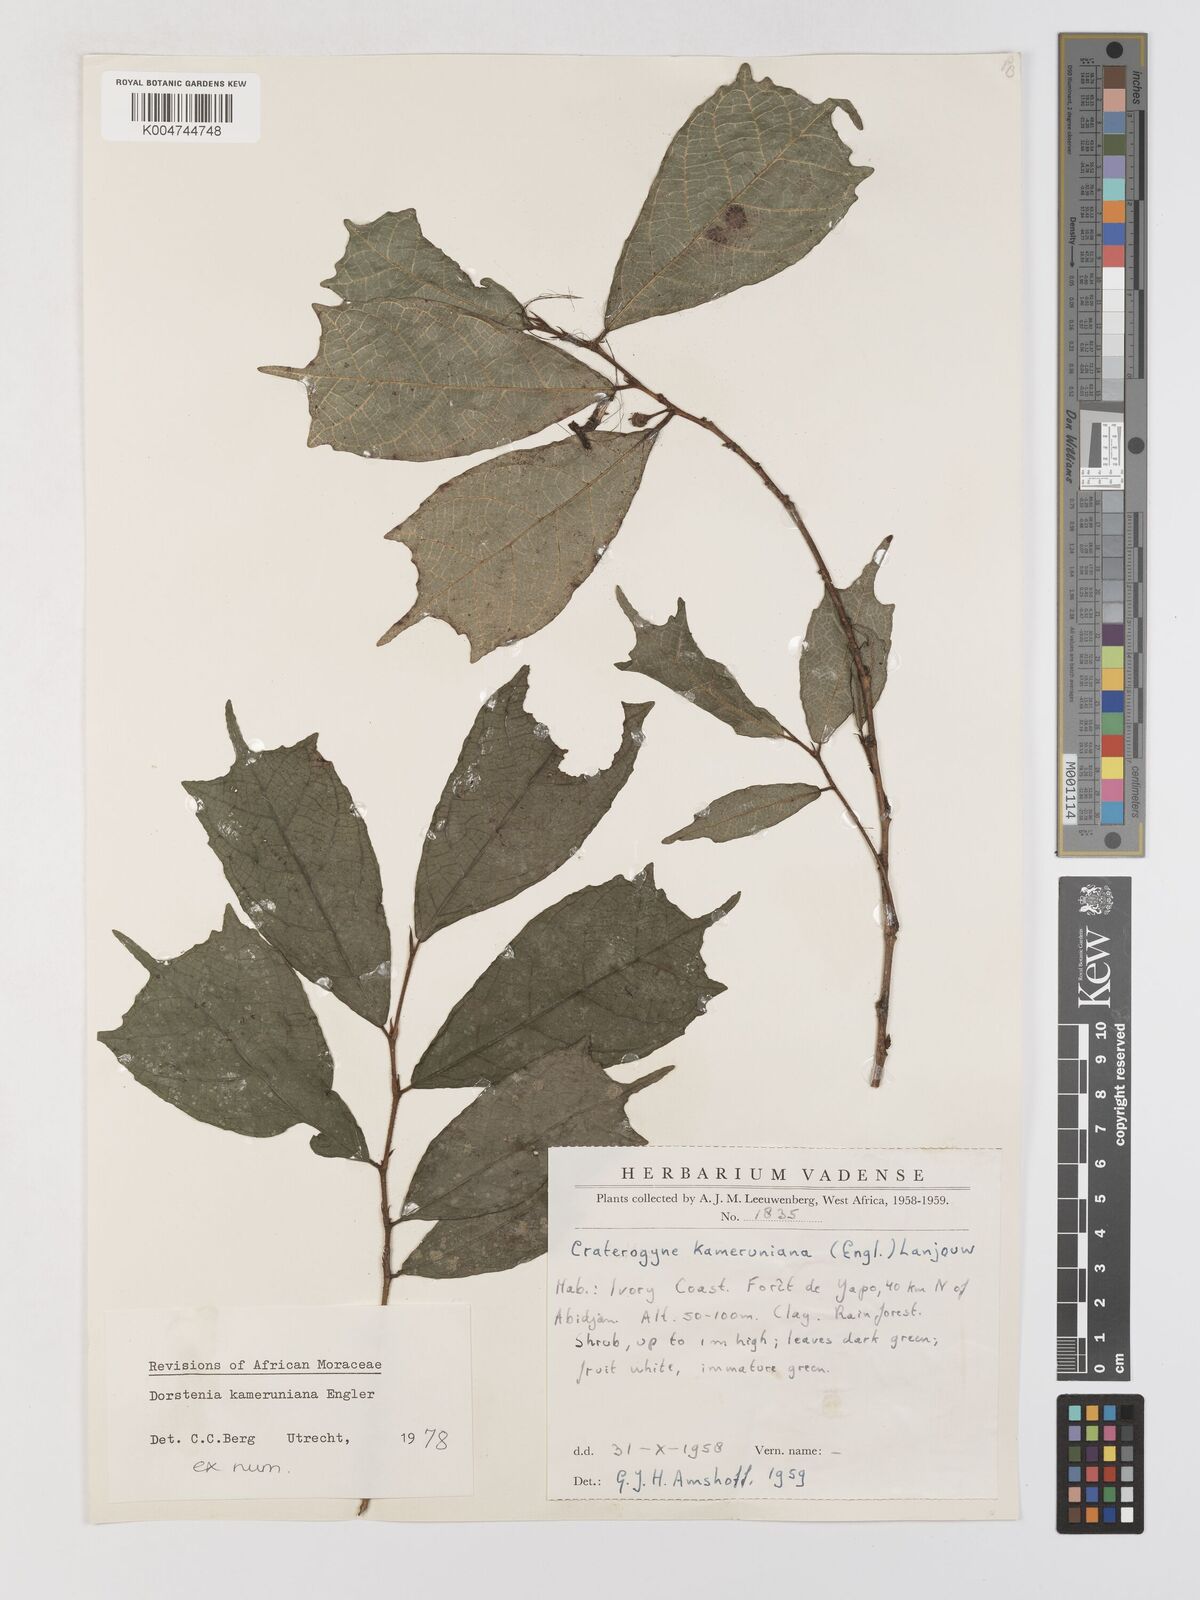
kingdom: Plantae
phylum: Tracheophyta
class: Magnoliopsida
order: Rosales
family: Moraceae
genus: Dorstenia
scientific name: Dorstenia kameruniana
